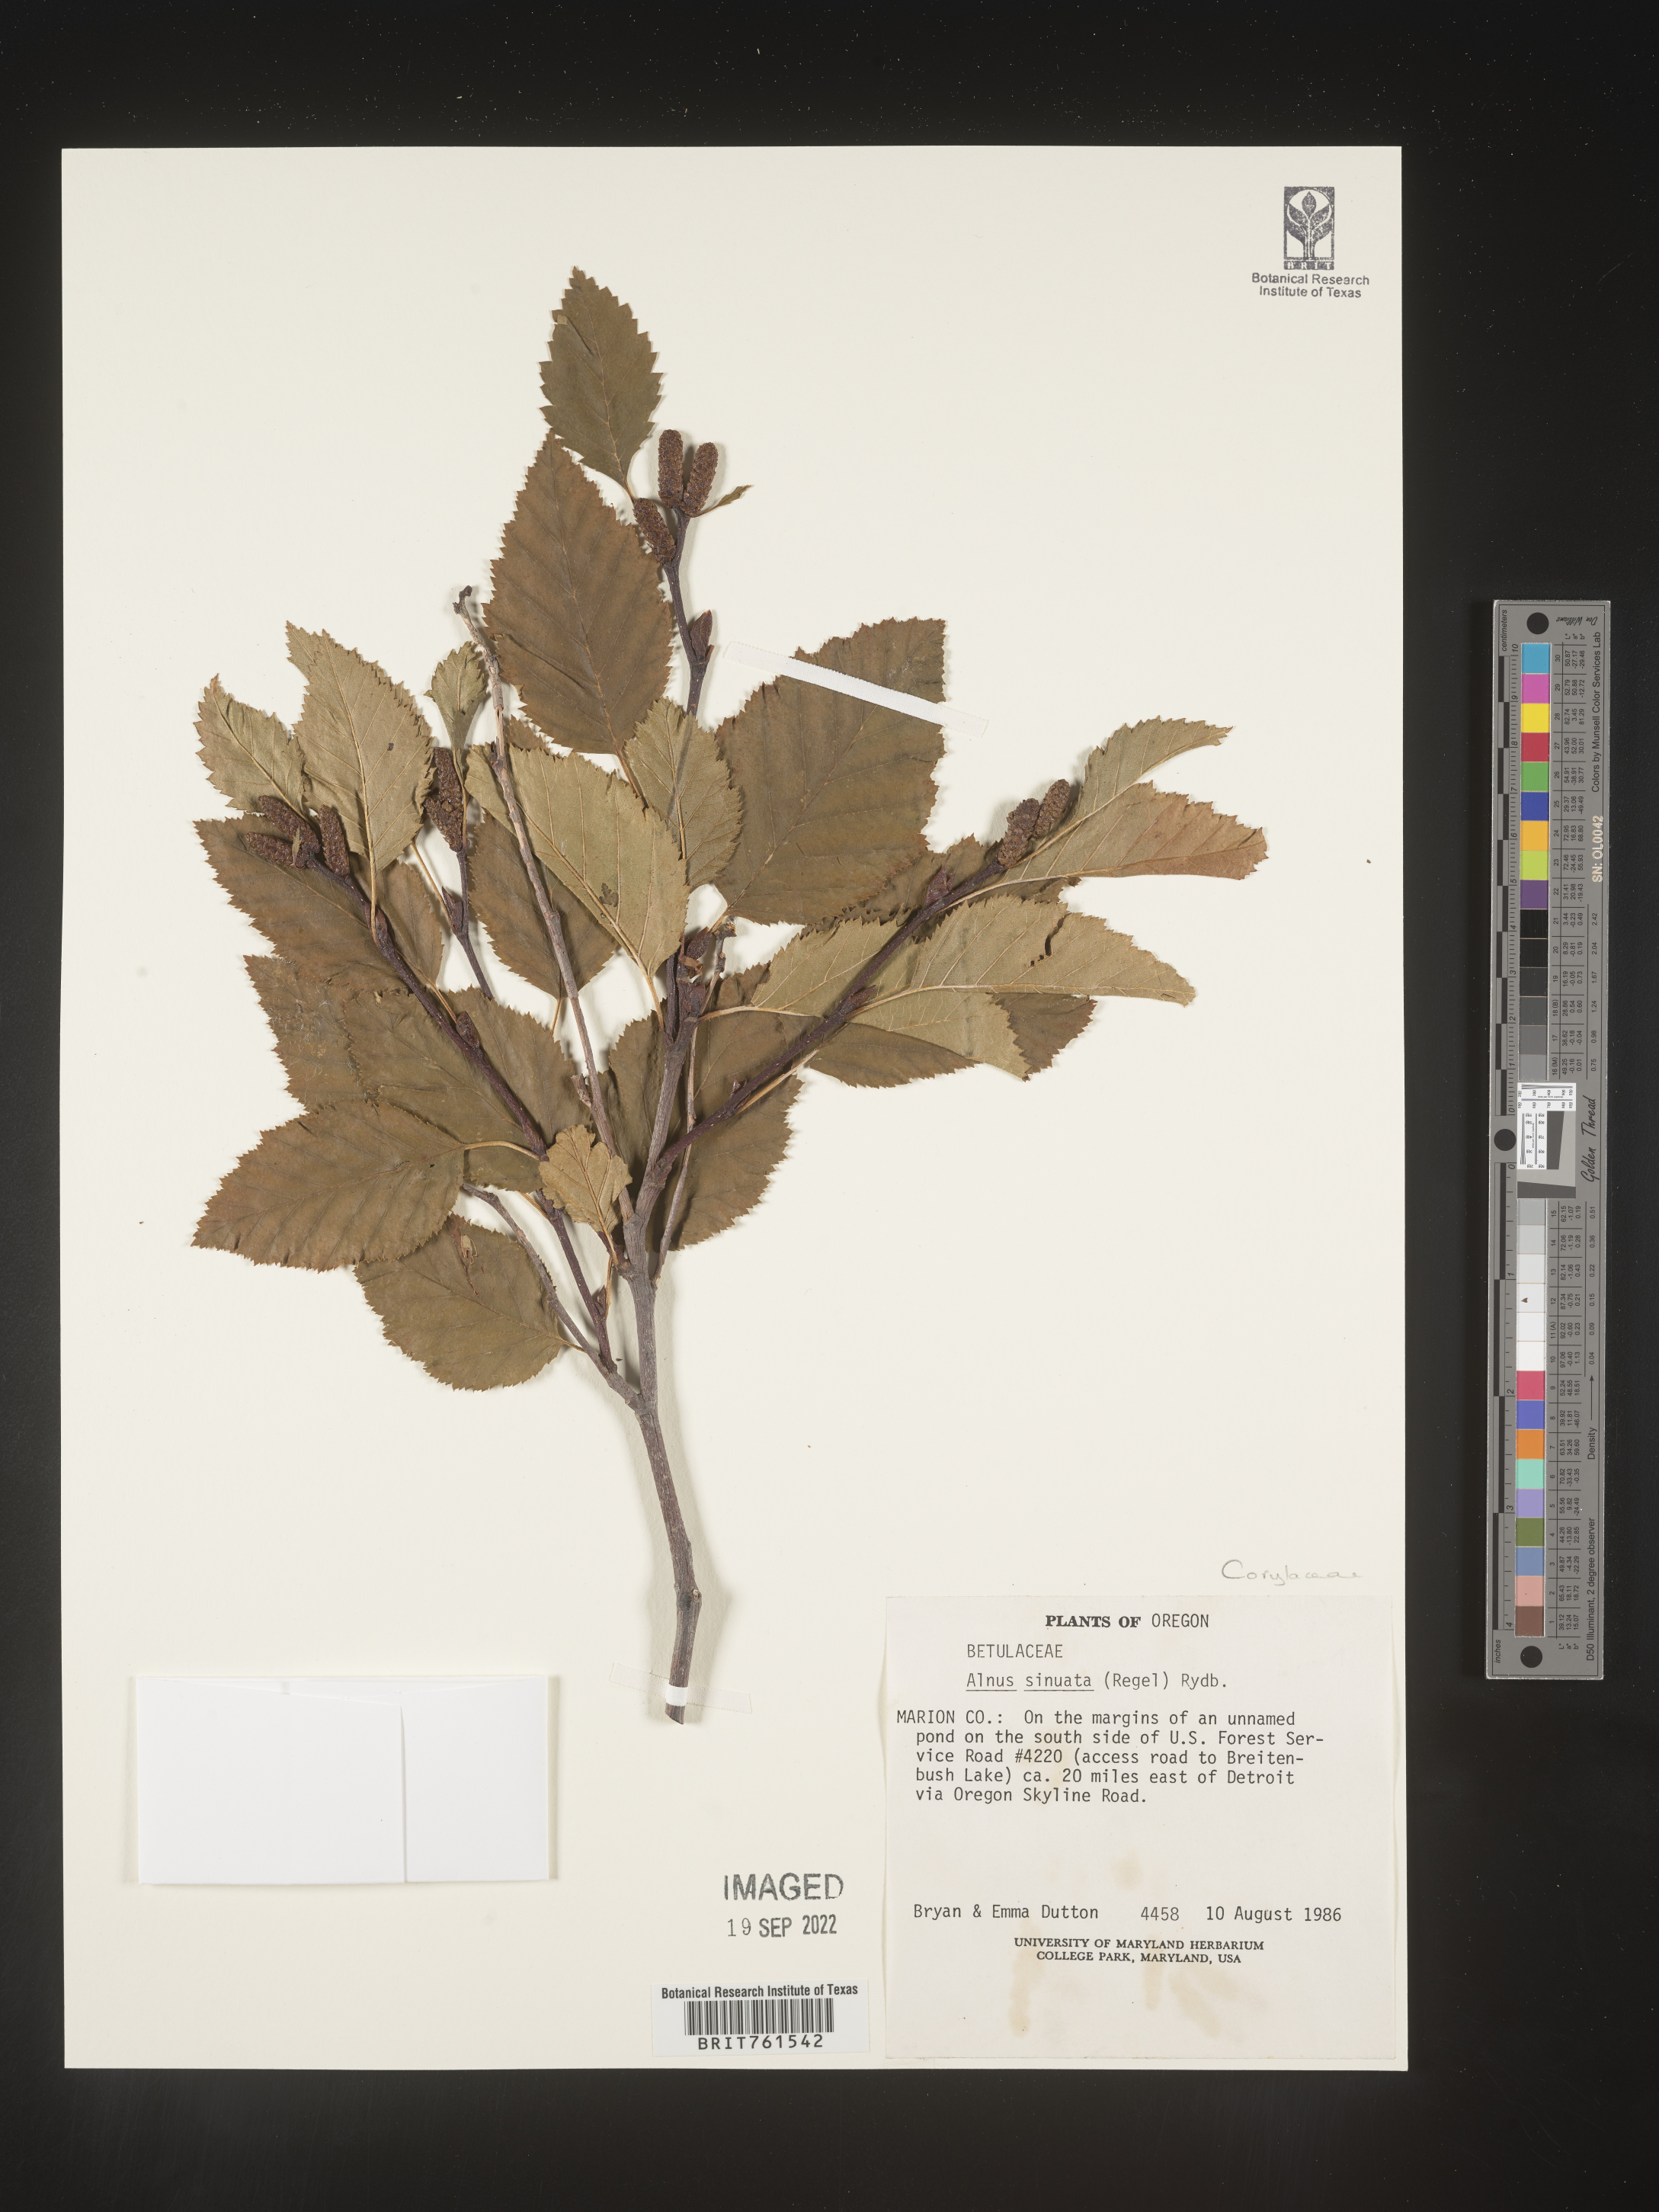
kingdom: Plantae
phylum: Tracheophyta
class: Magnoliopsida
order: Fagales
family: Betulaceae
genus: Alnus
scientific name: Alnus alnobetula
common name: Green alder
